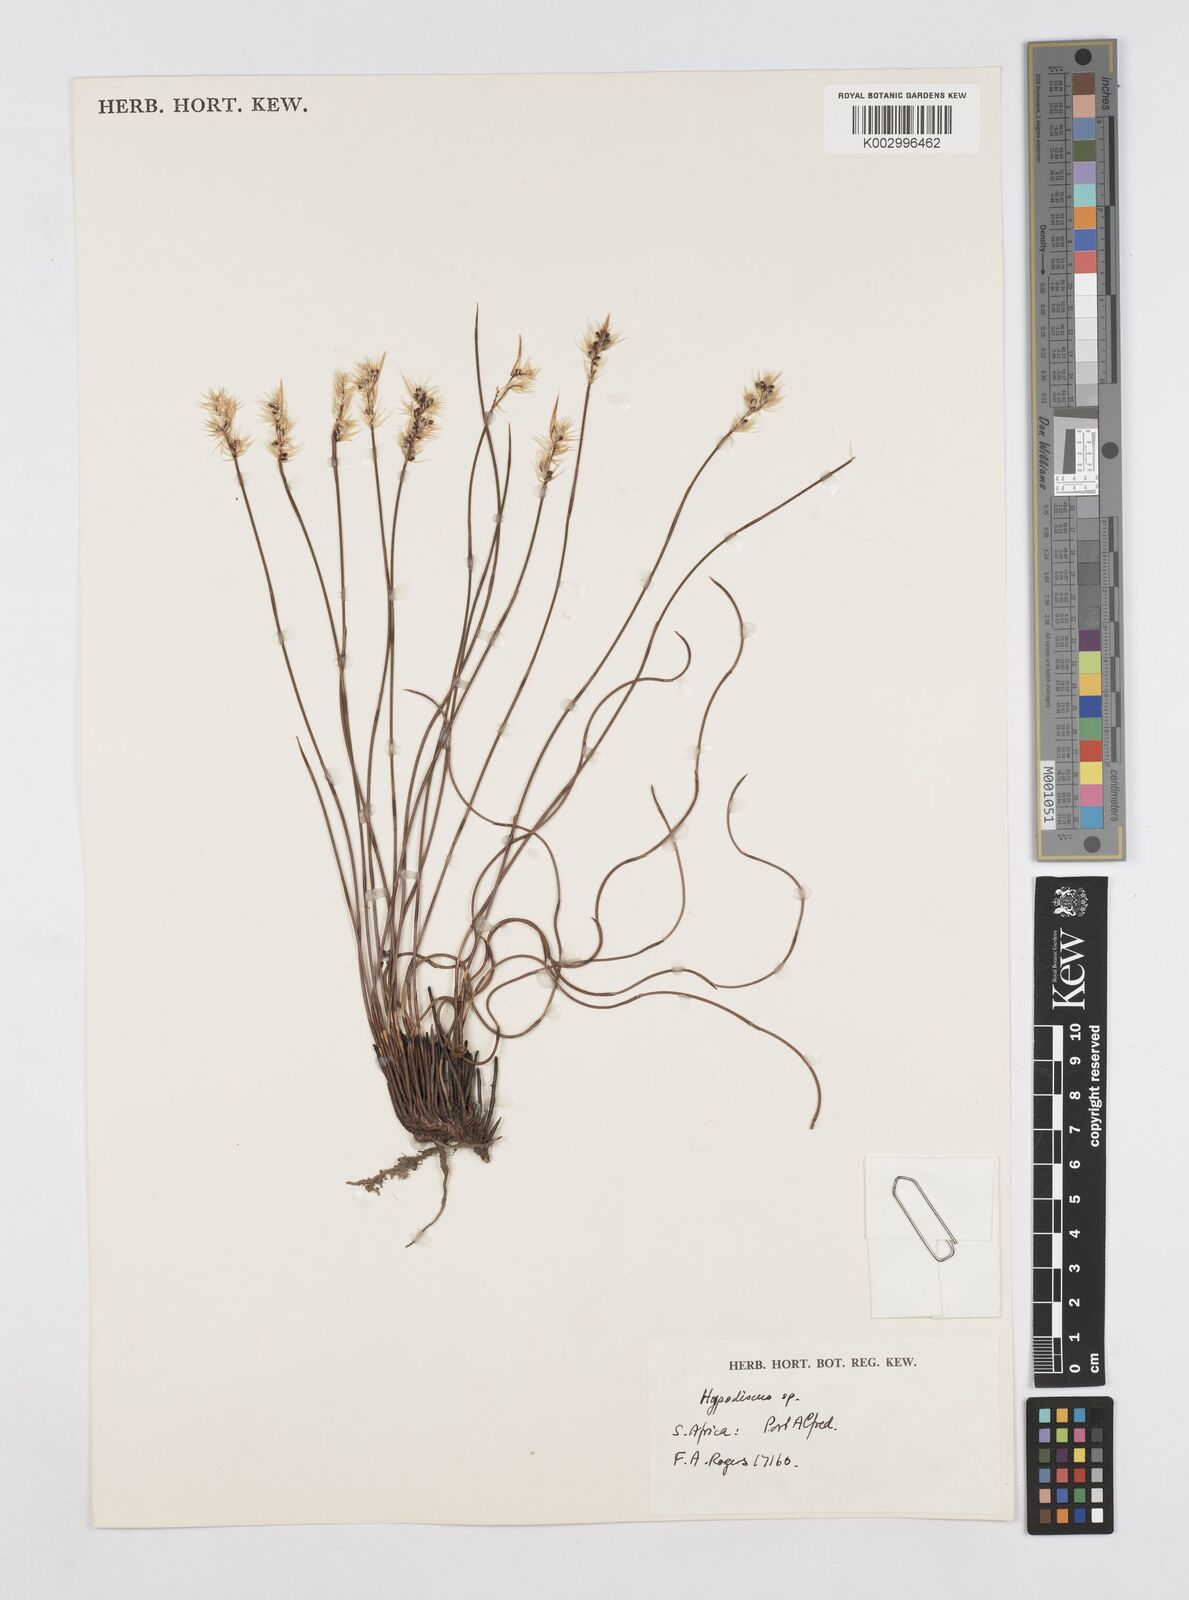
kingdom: Plantae
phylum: Tracheophyta
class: Liliopsida
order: Poales
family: Restionaceae
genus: Hypodiscus
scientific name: Hypodiscus neesii
